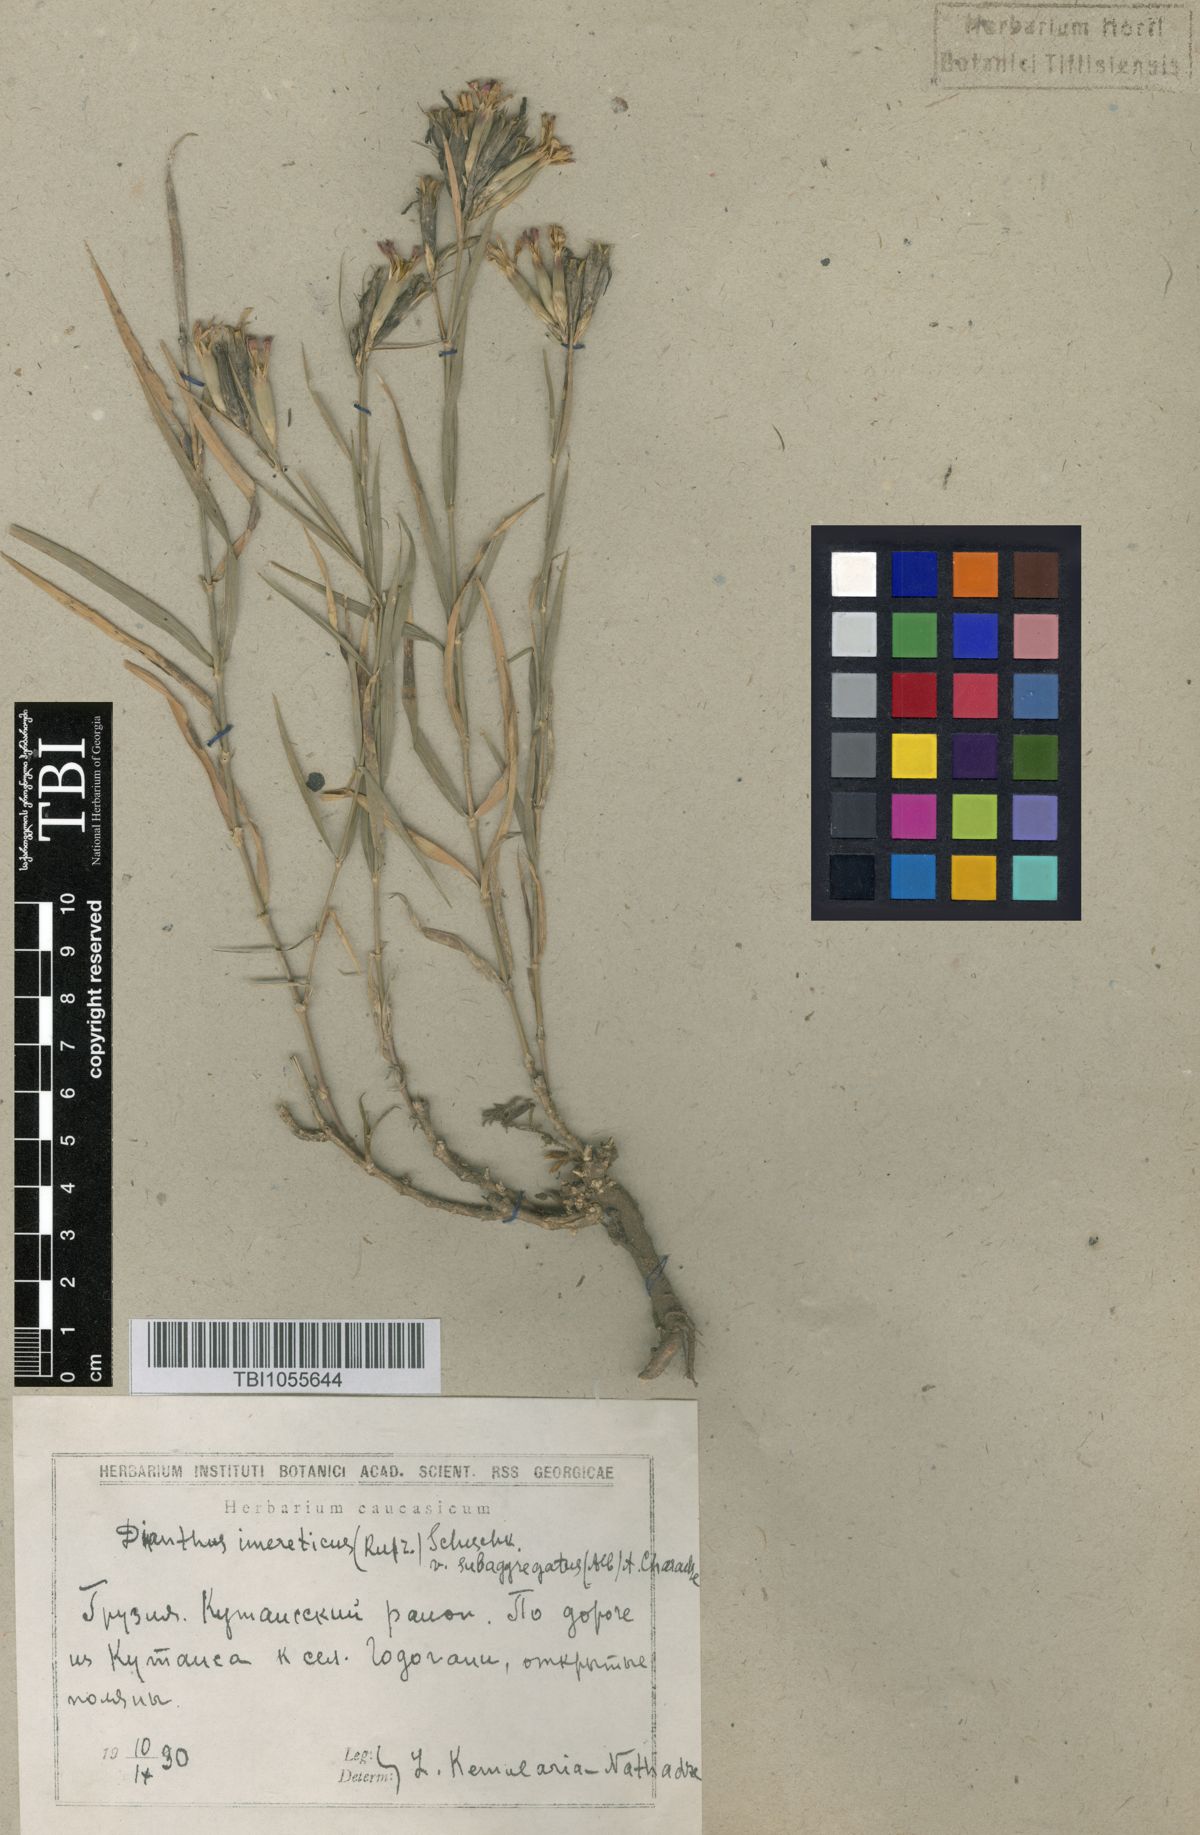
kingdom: Plantae
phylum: Tracheophyta
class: Magnoliopsida
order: Caryophyllales
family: Caryophyllaceae
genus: Dianthus
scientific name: Dianthus imereticus
